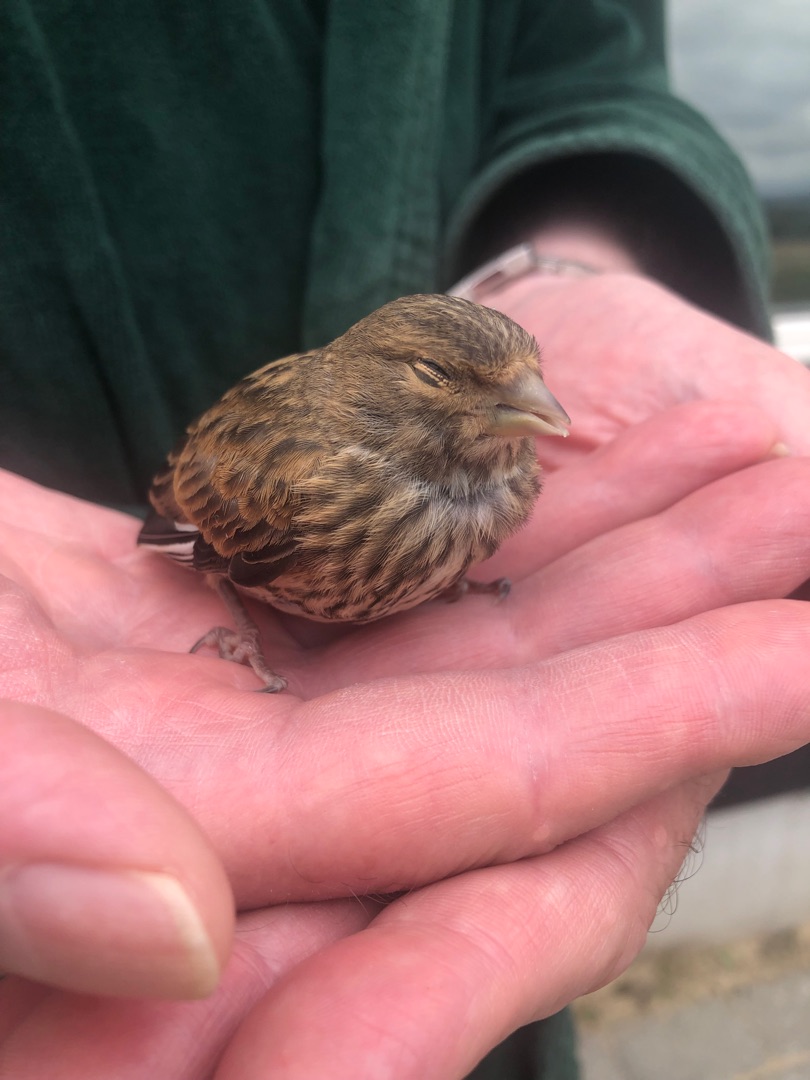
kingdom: Animalia
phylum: Chordata
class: Aves
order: Passeriformes
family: Fringillidae
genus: Linaria
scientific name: Linaria cannabina
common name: Tornirisk
